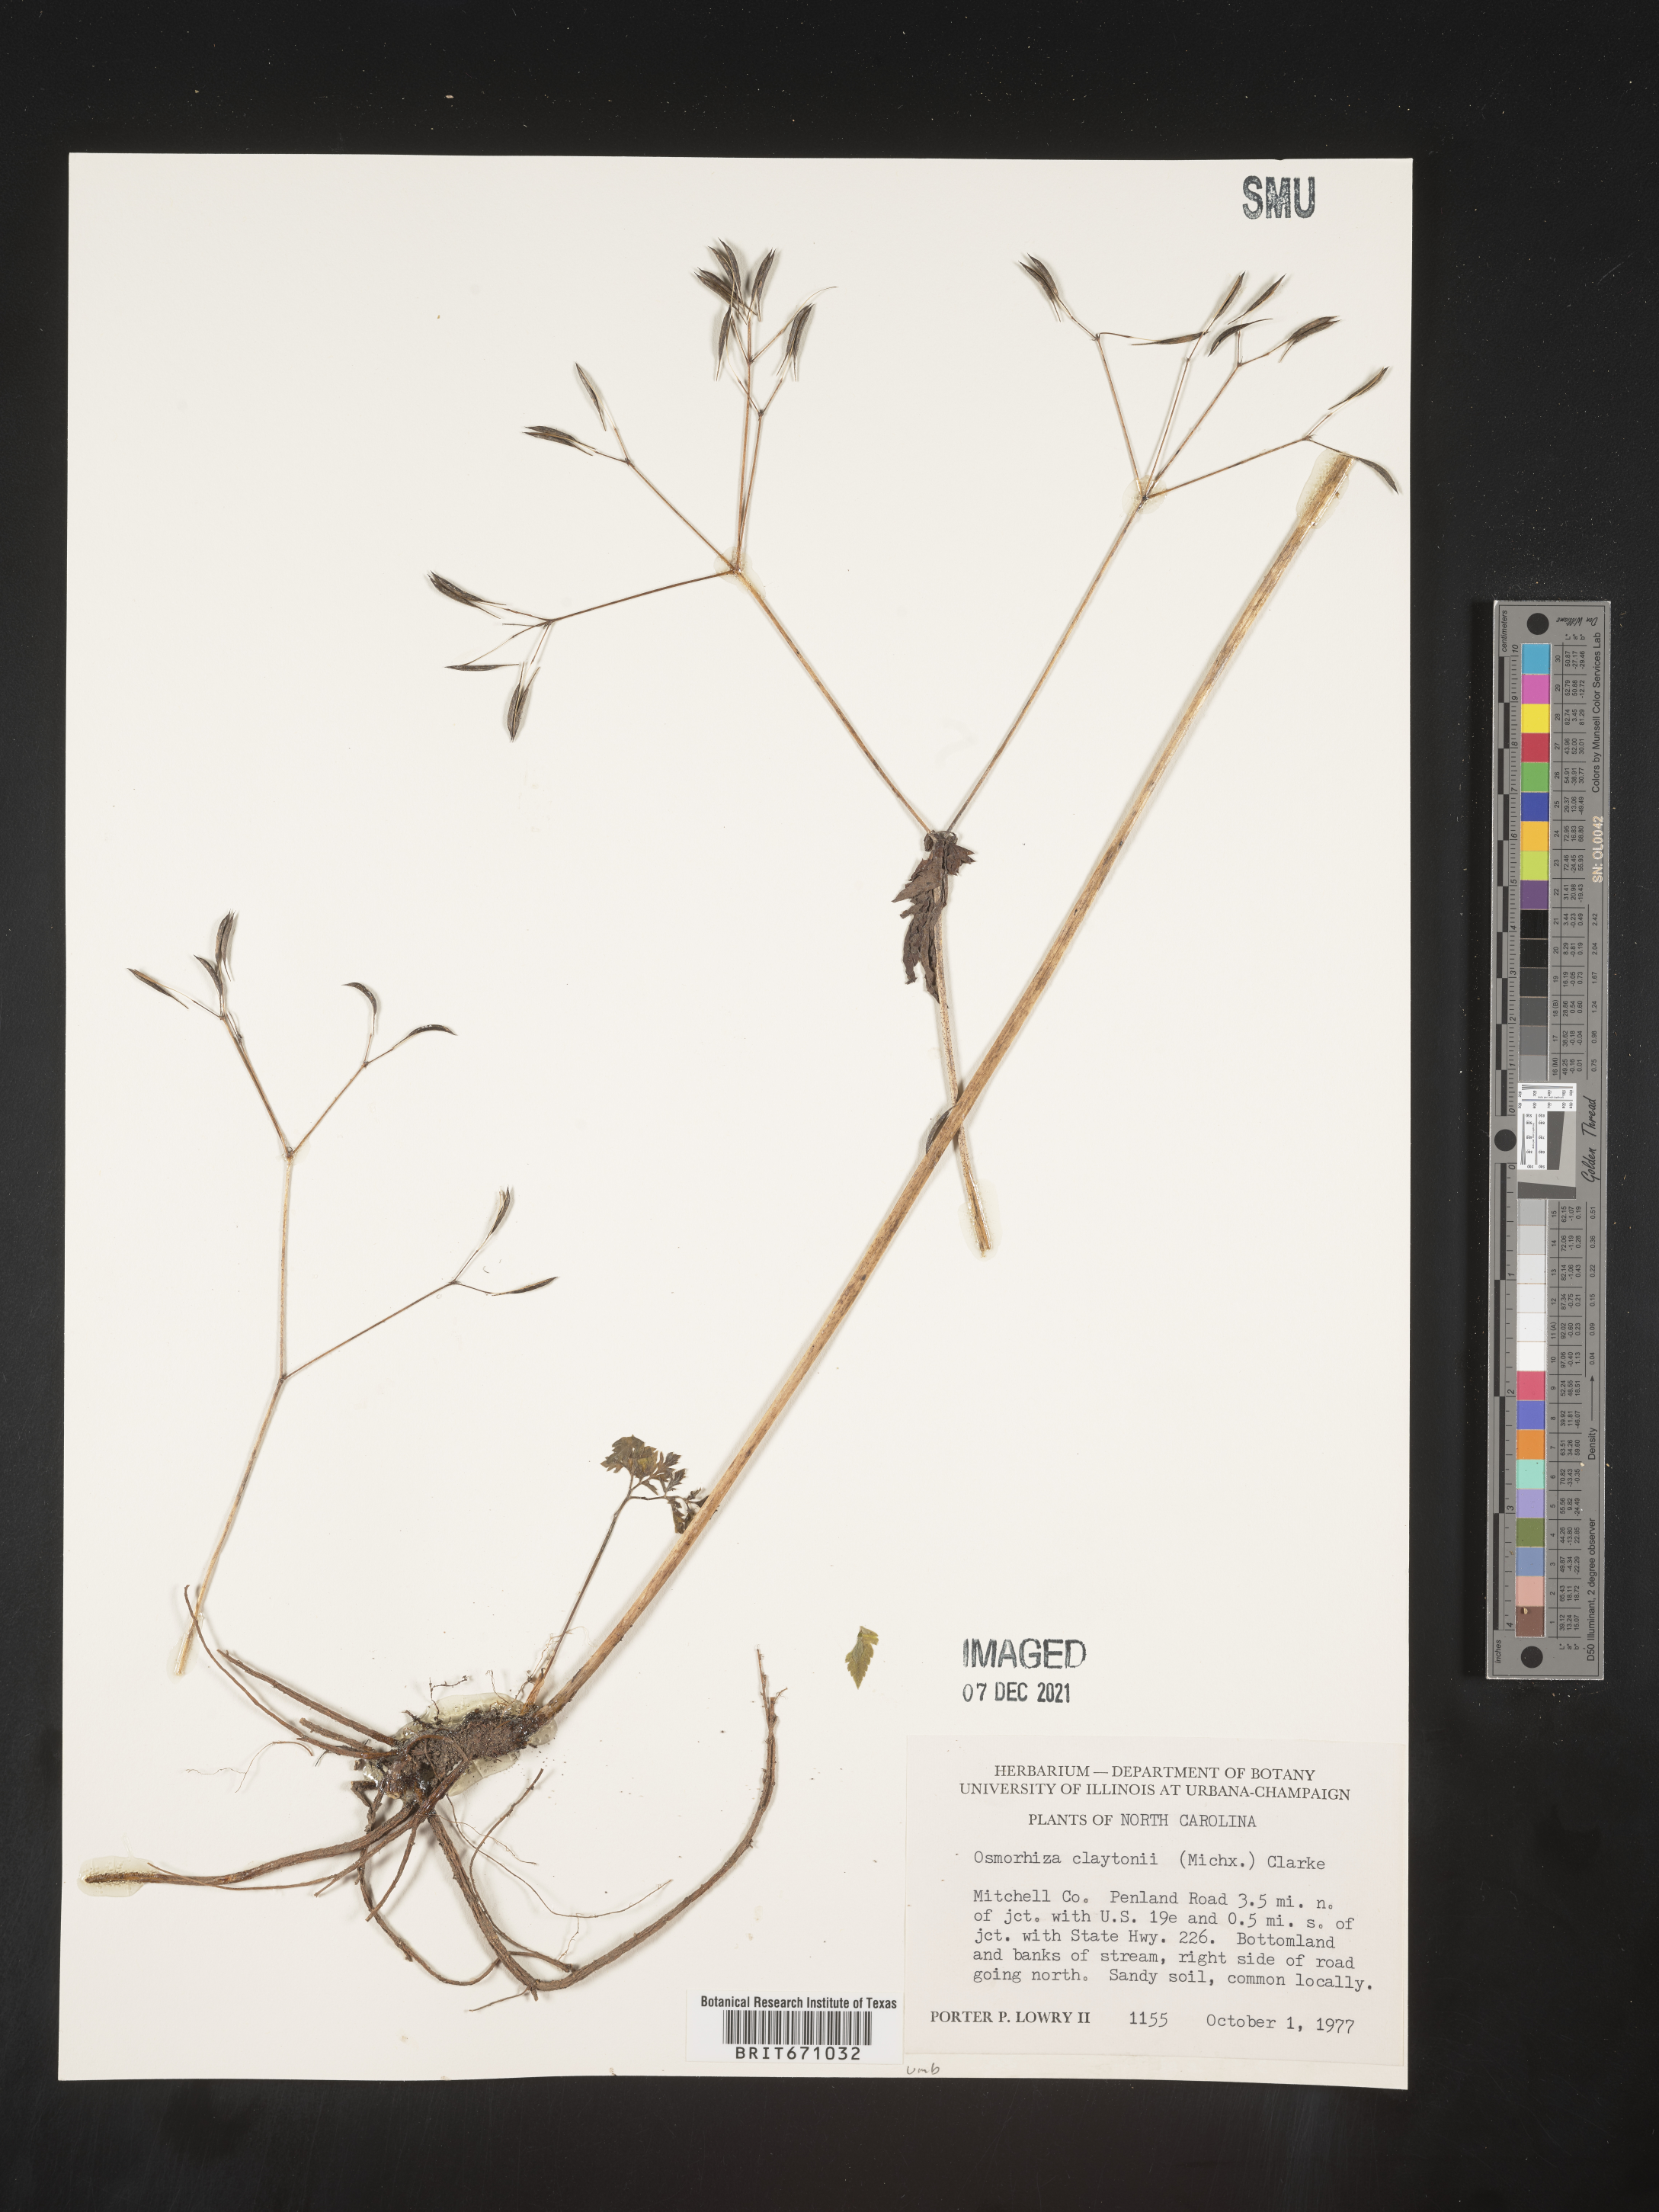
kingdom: Plantae
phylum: Tracheophyta
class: Magnoliopsida
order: Apiales
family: Apiaceae
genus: Osmorhiza
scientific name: Osmorhiza claytonii
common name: Hairy sweet cicely
